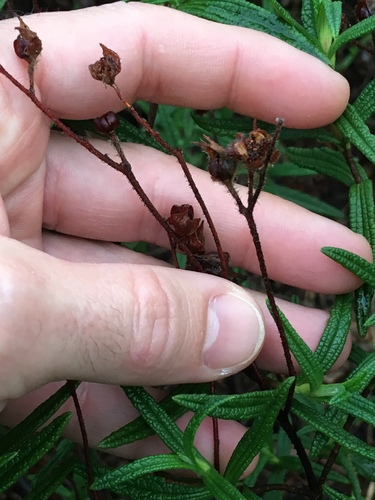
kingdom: Plantae
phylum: Tracheophyta
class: Magnoliopsida
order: Malvales
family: Cistaceae
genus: Cistus
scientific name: Cistus monspeliensis
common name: Montpelier cistus
